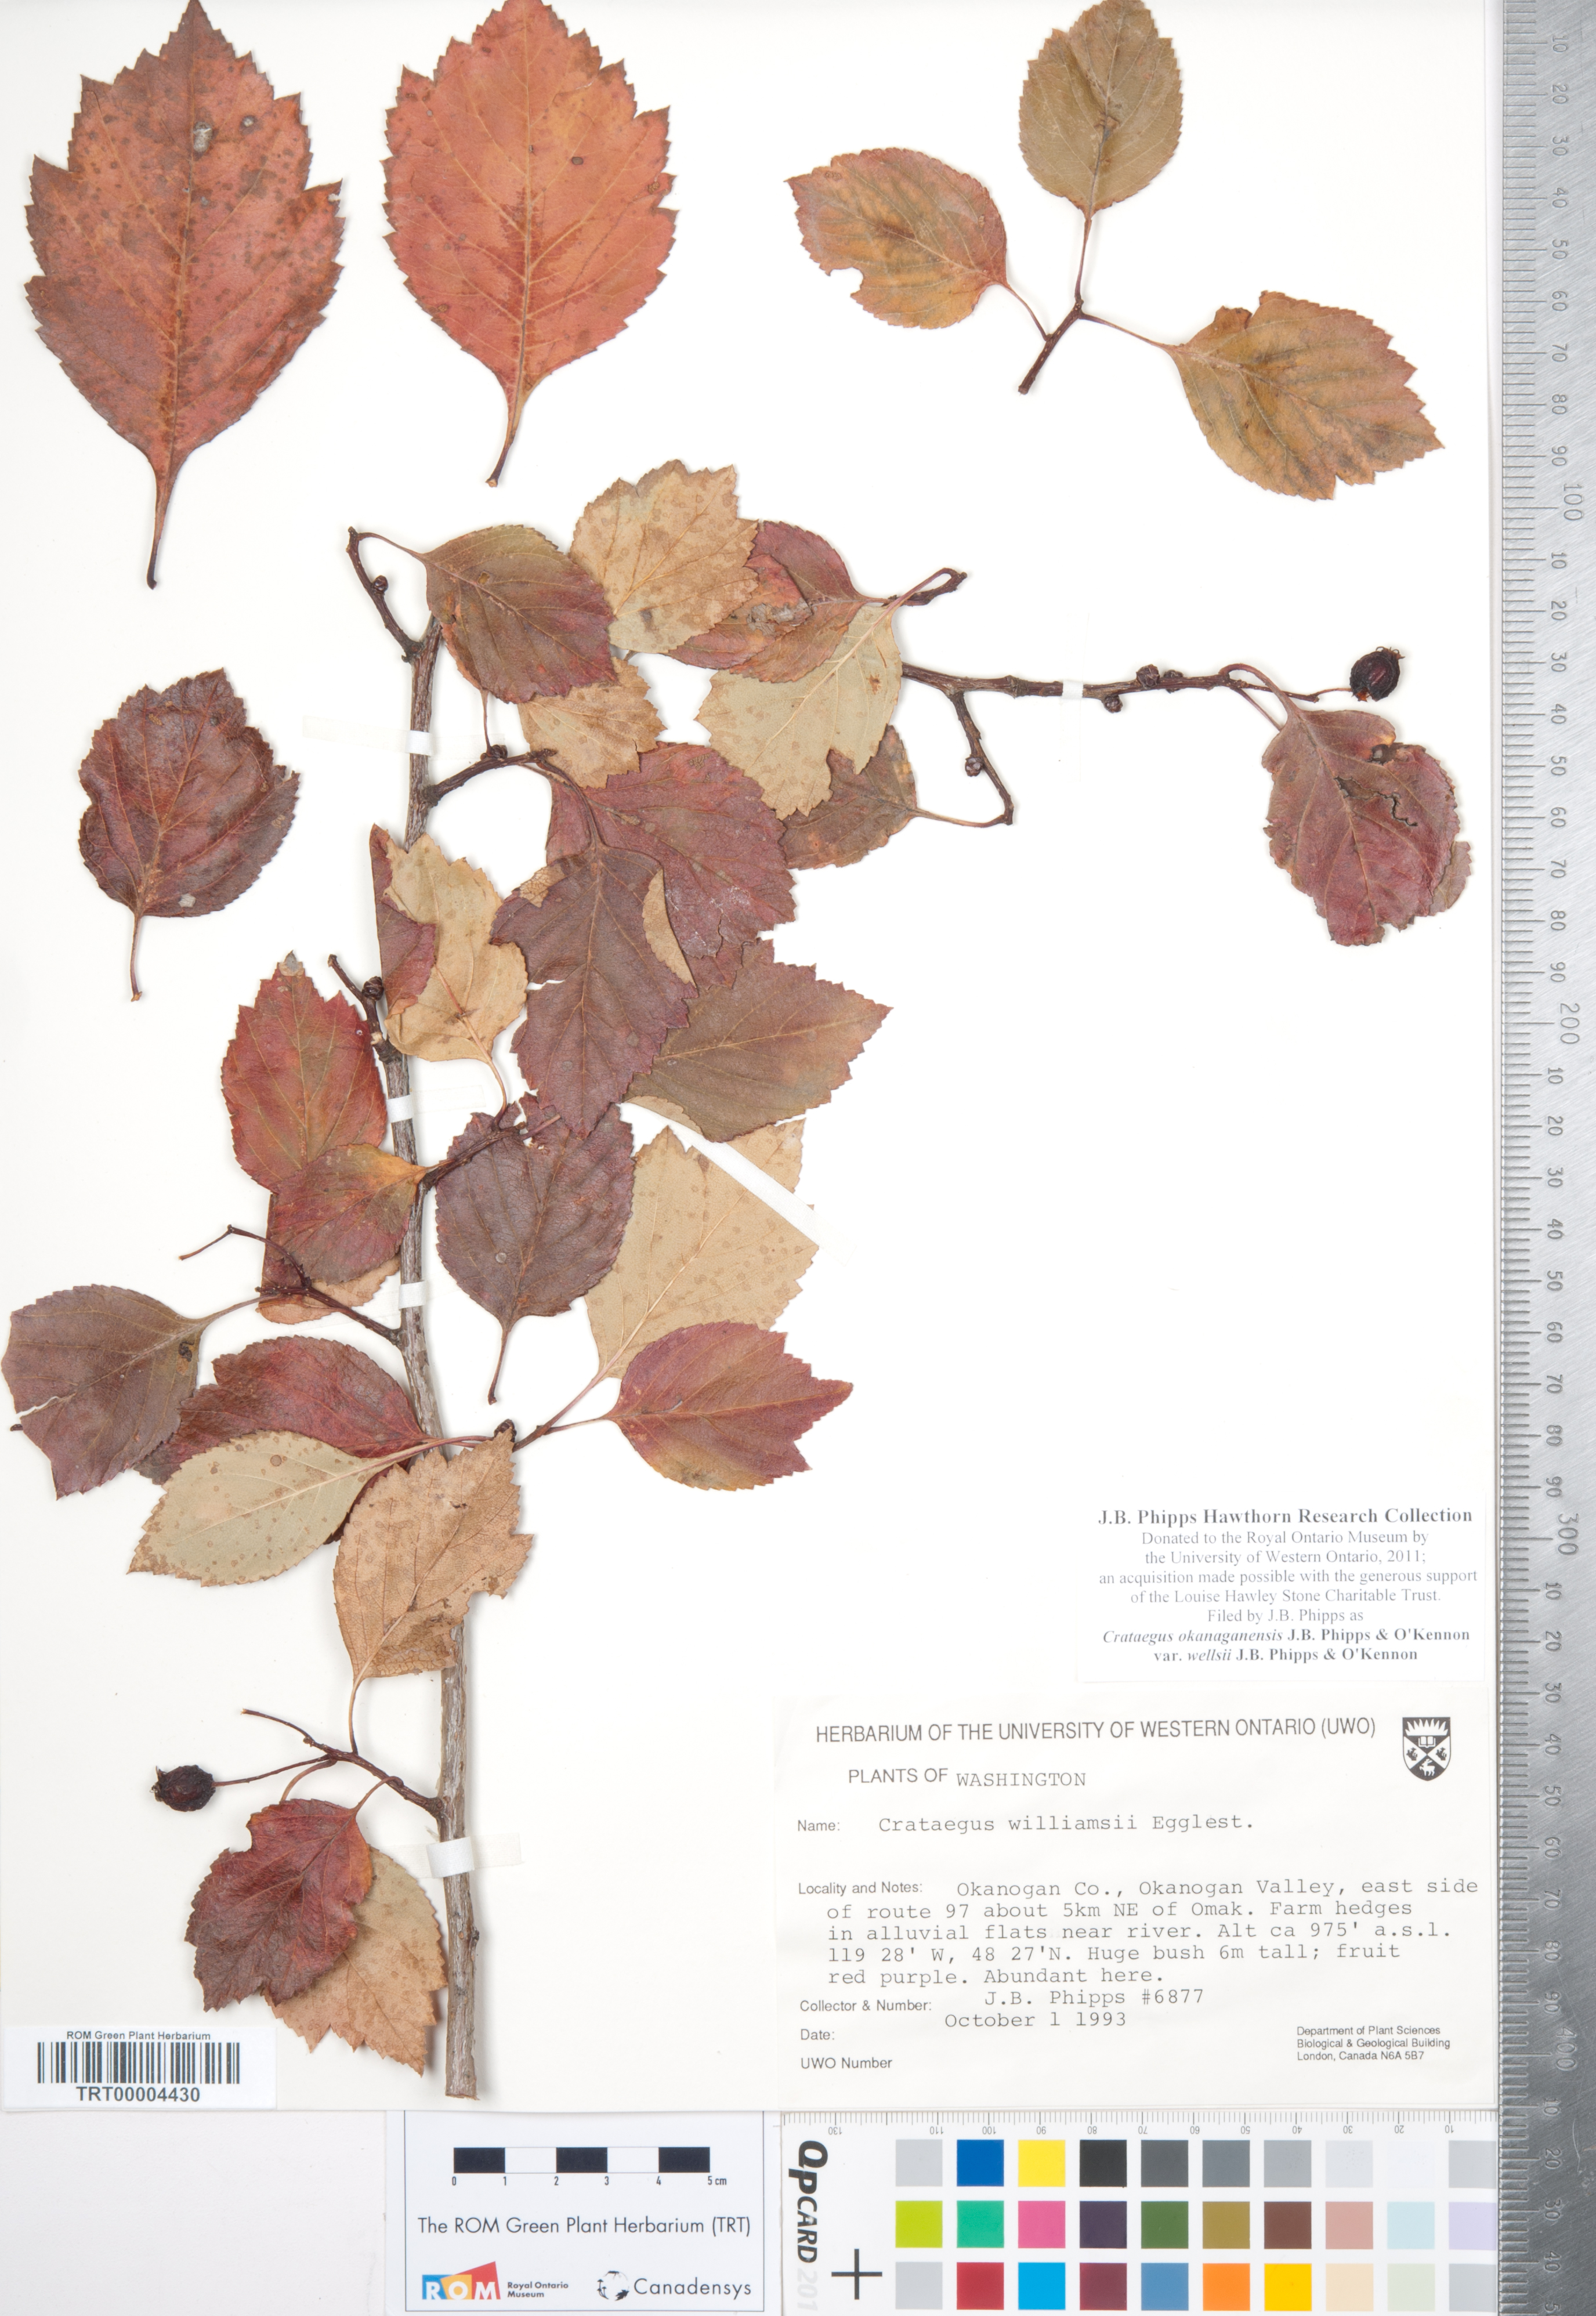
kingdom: Plantae
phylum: Tracheophyta
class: Magnoliopsida
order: Rosales
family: Rosaceae
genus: Crataegus
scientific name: Crataegus okanaganensis
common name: Okanagan valley hawthorn
